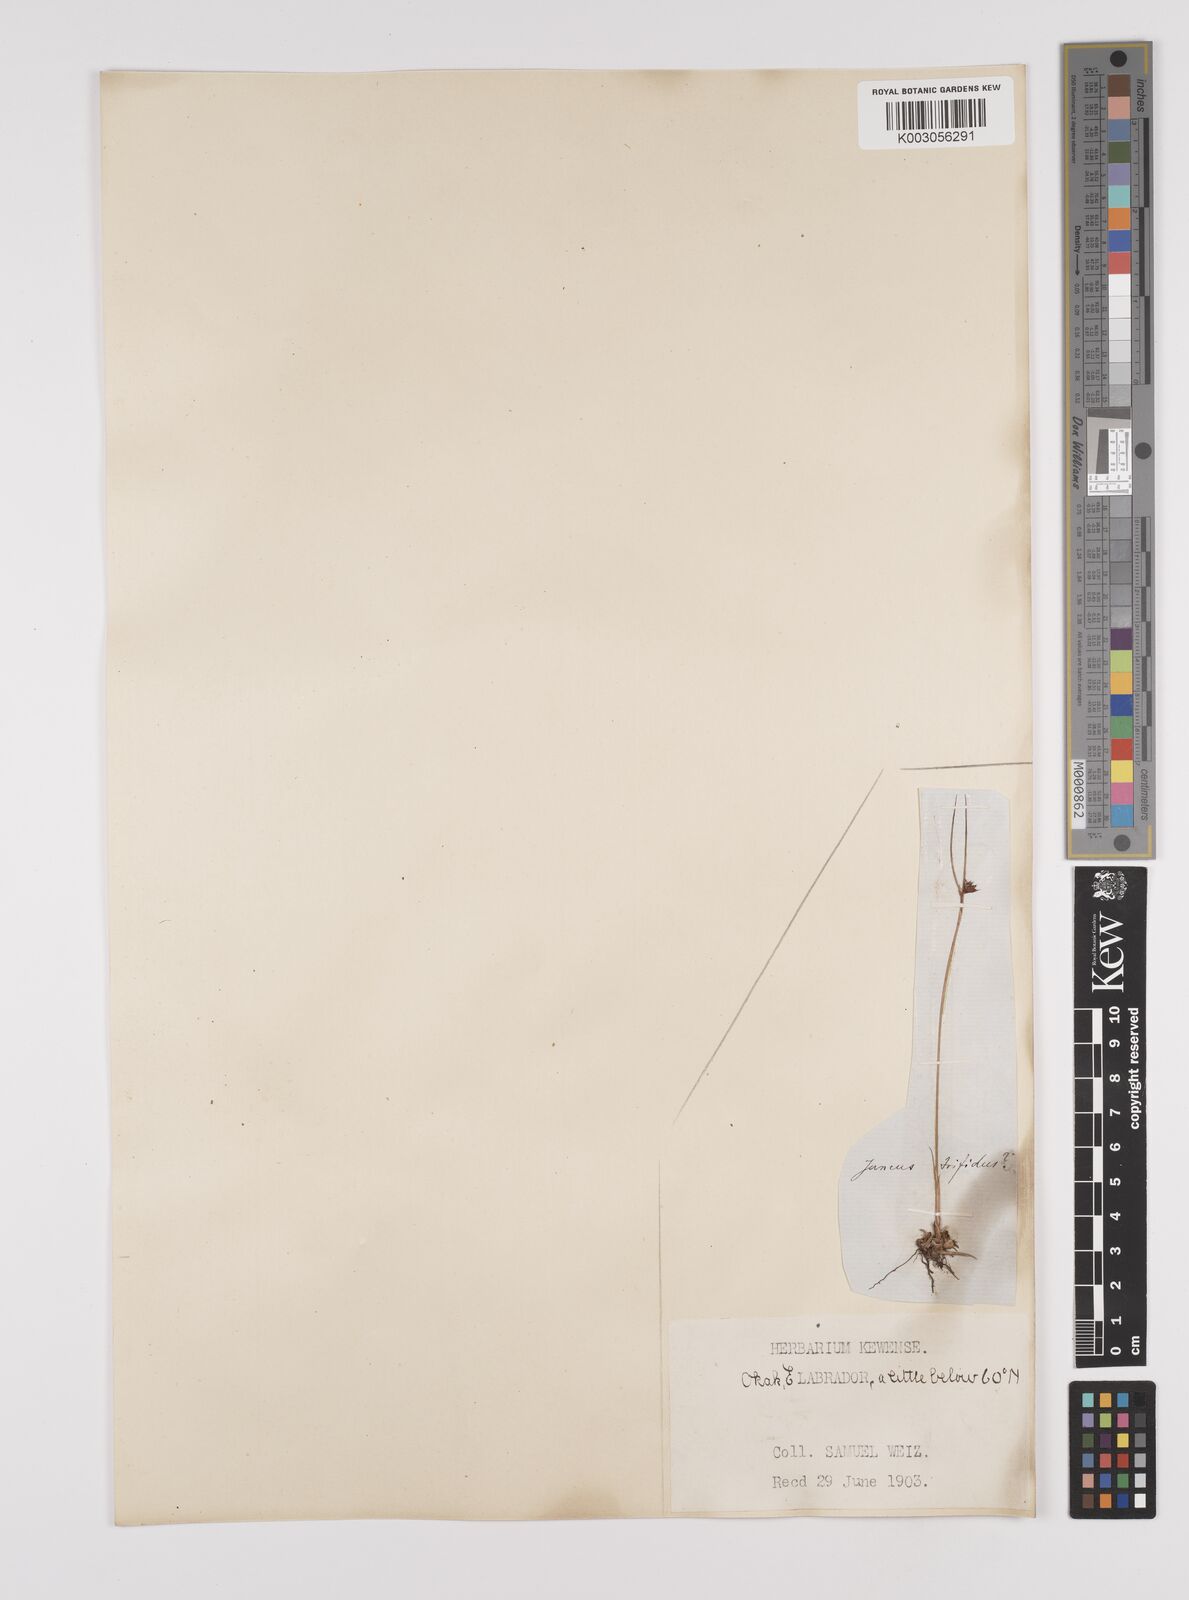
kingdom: Plantae
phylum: Tracheophyta
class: Liliopsida
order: Poales
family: Juncaceae
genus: Oreojuncus
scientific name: Oreojuncus trifidus
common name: Highland rush
